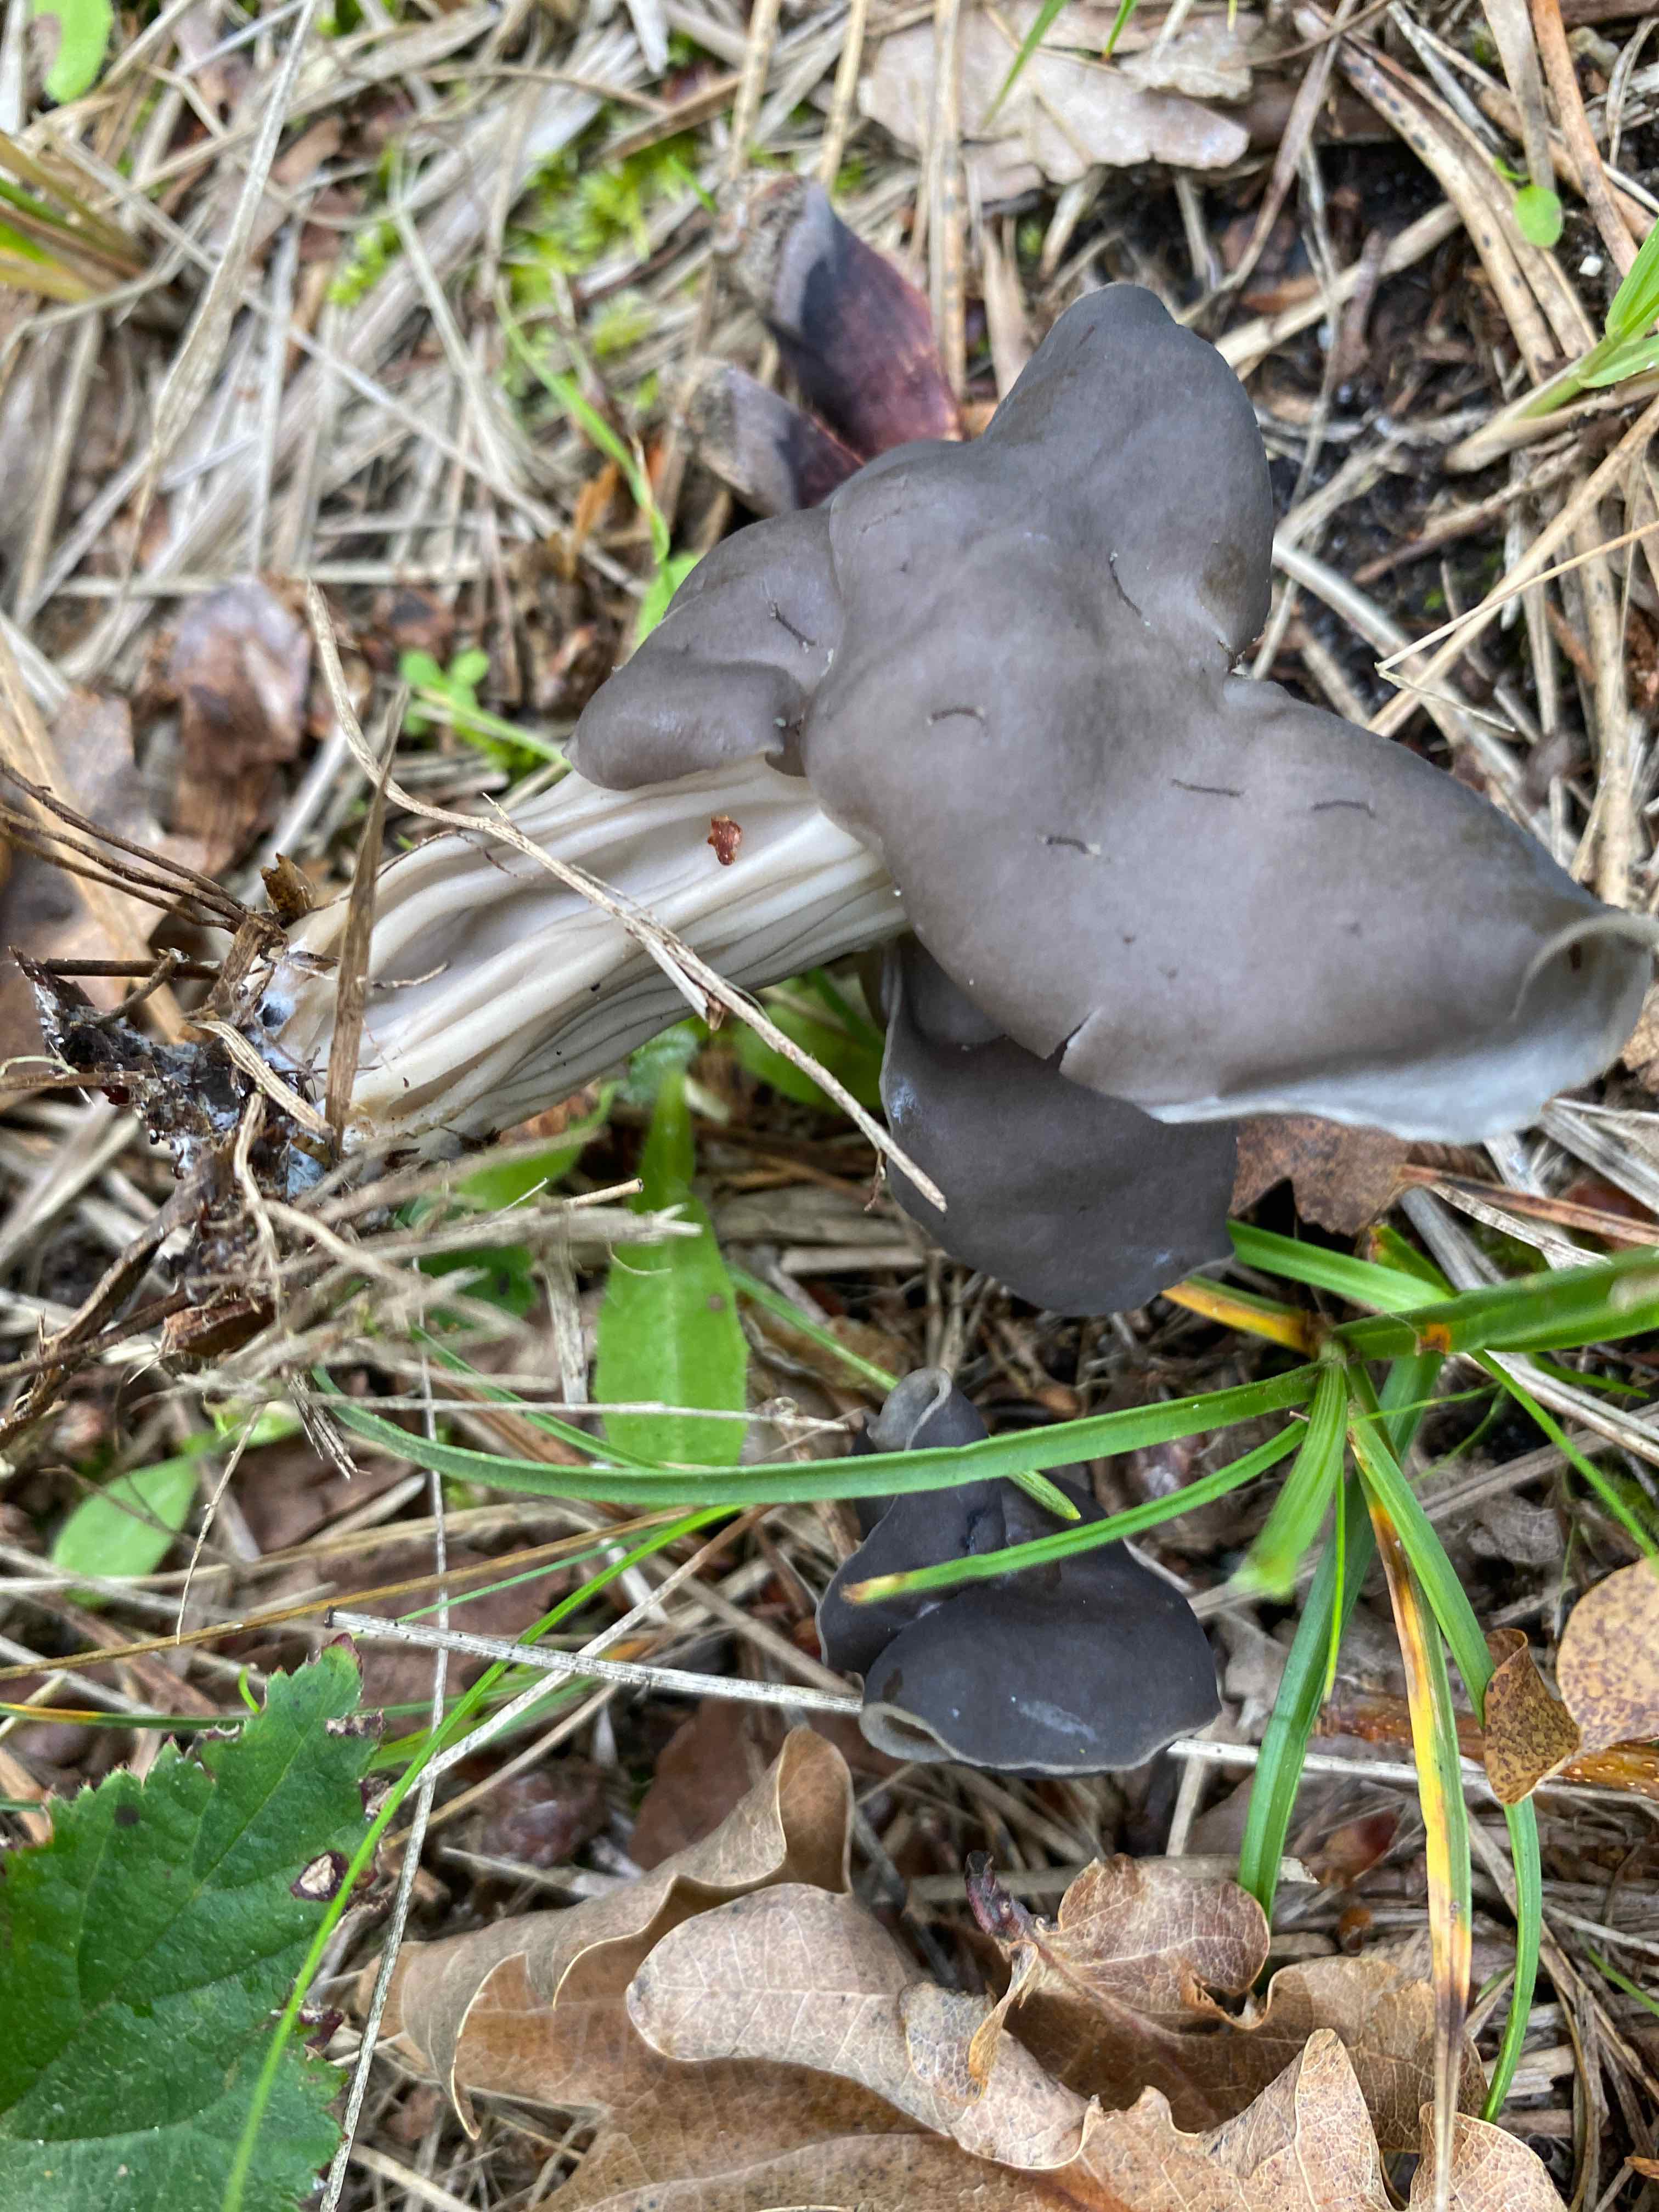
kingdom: Fungi
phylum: Ascomycota
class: Pezizomycetes
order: Pezizales
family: Helvellaceae
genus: Helvella
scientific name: Helvella lacunosa
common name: grubet foldhat
